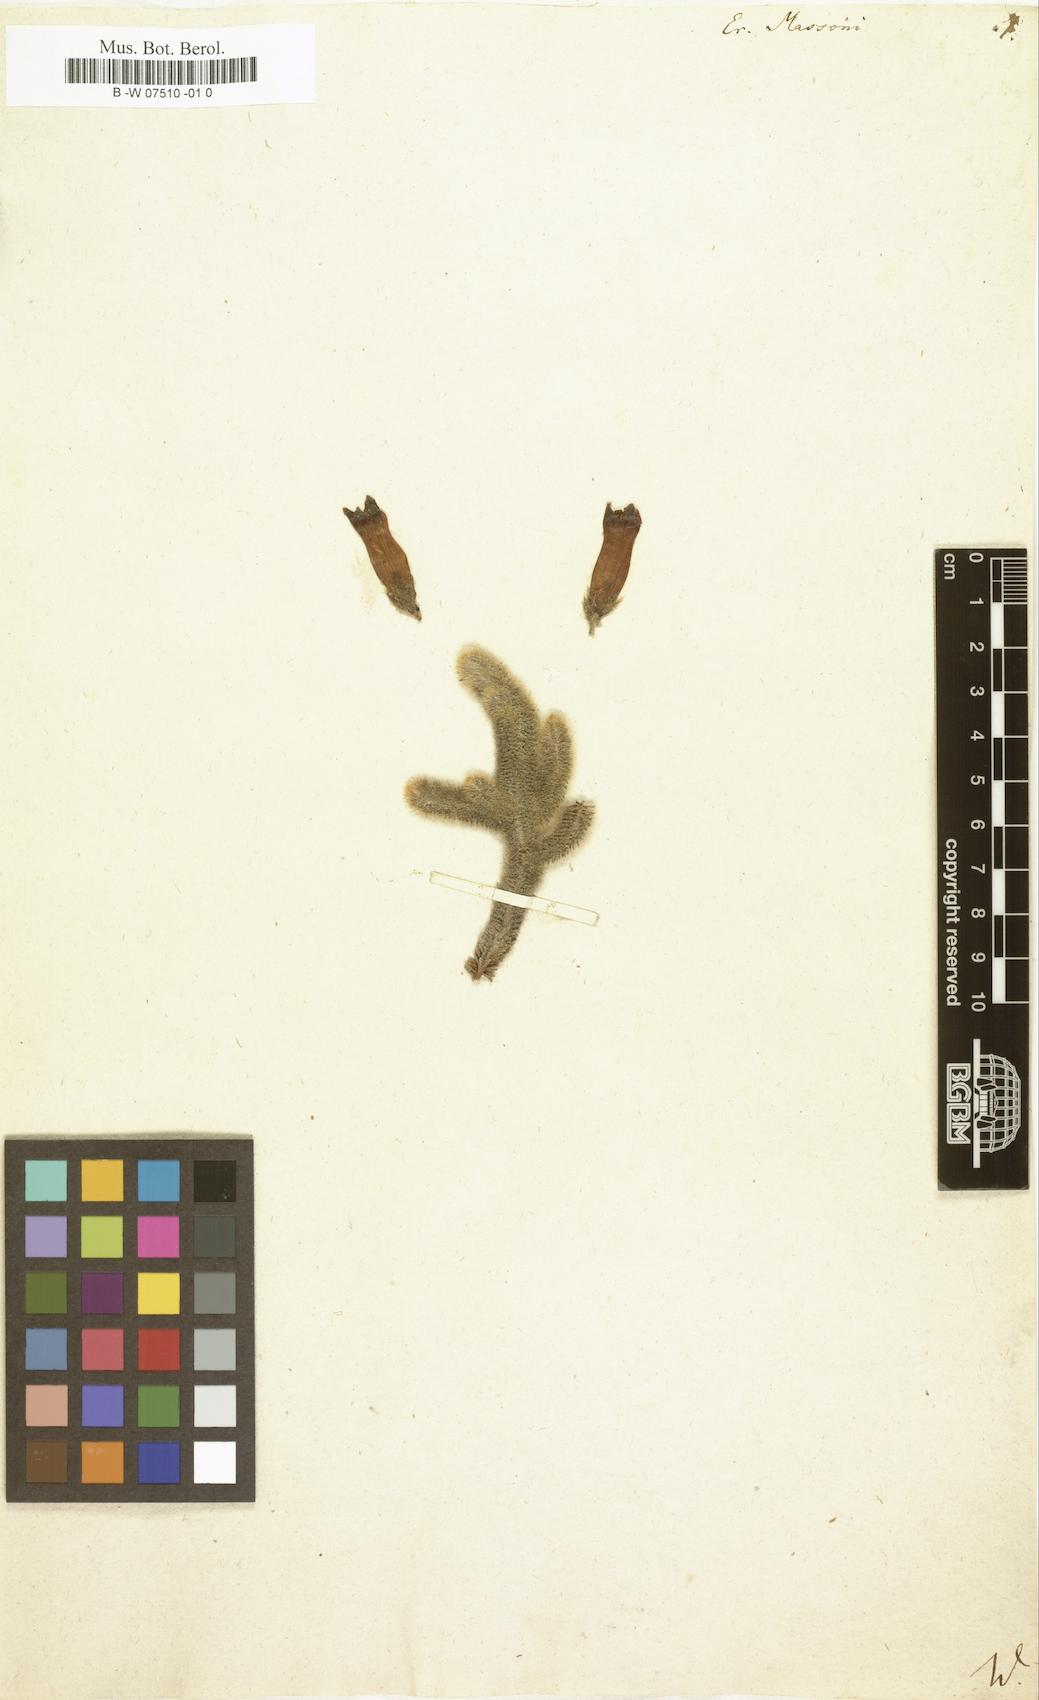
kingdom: Plantae
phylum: Tracheophyta
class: Magnoliopsida
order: Ericales
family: Ericaceae
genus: Erica
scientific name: Erica massonii
